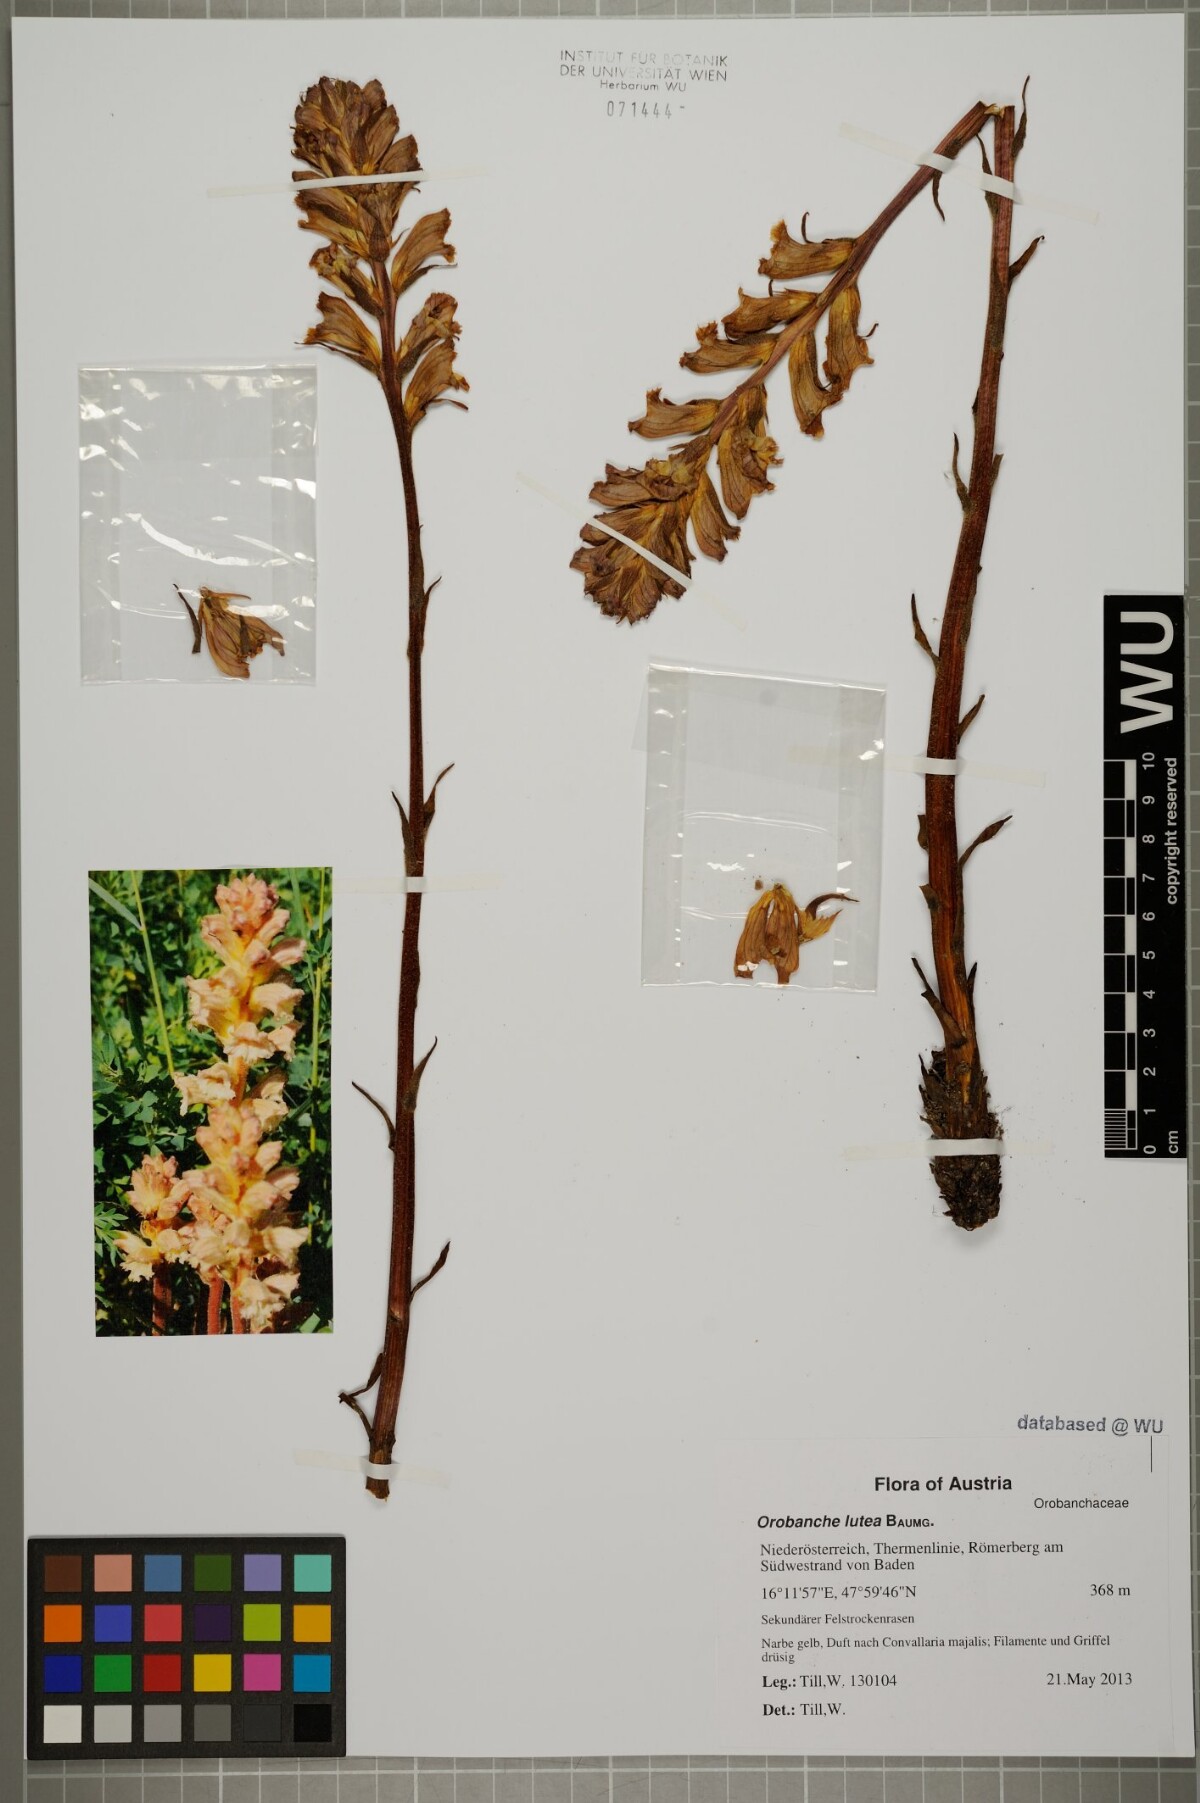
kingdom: Plantae
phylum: Tracheophyta
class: Magnoliopsida
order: Lamiales
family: Orobanchaceae
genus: Orobanche
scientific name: Orobanche lutea
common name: Yellow broomrape
